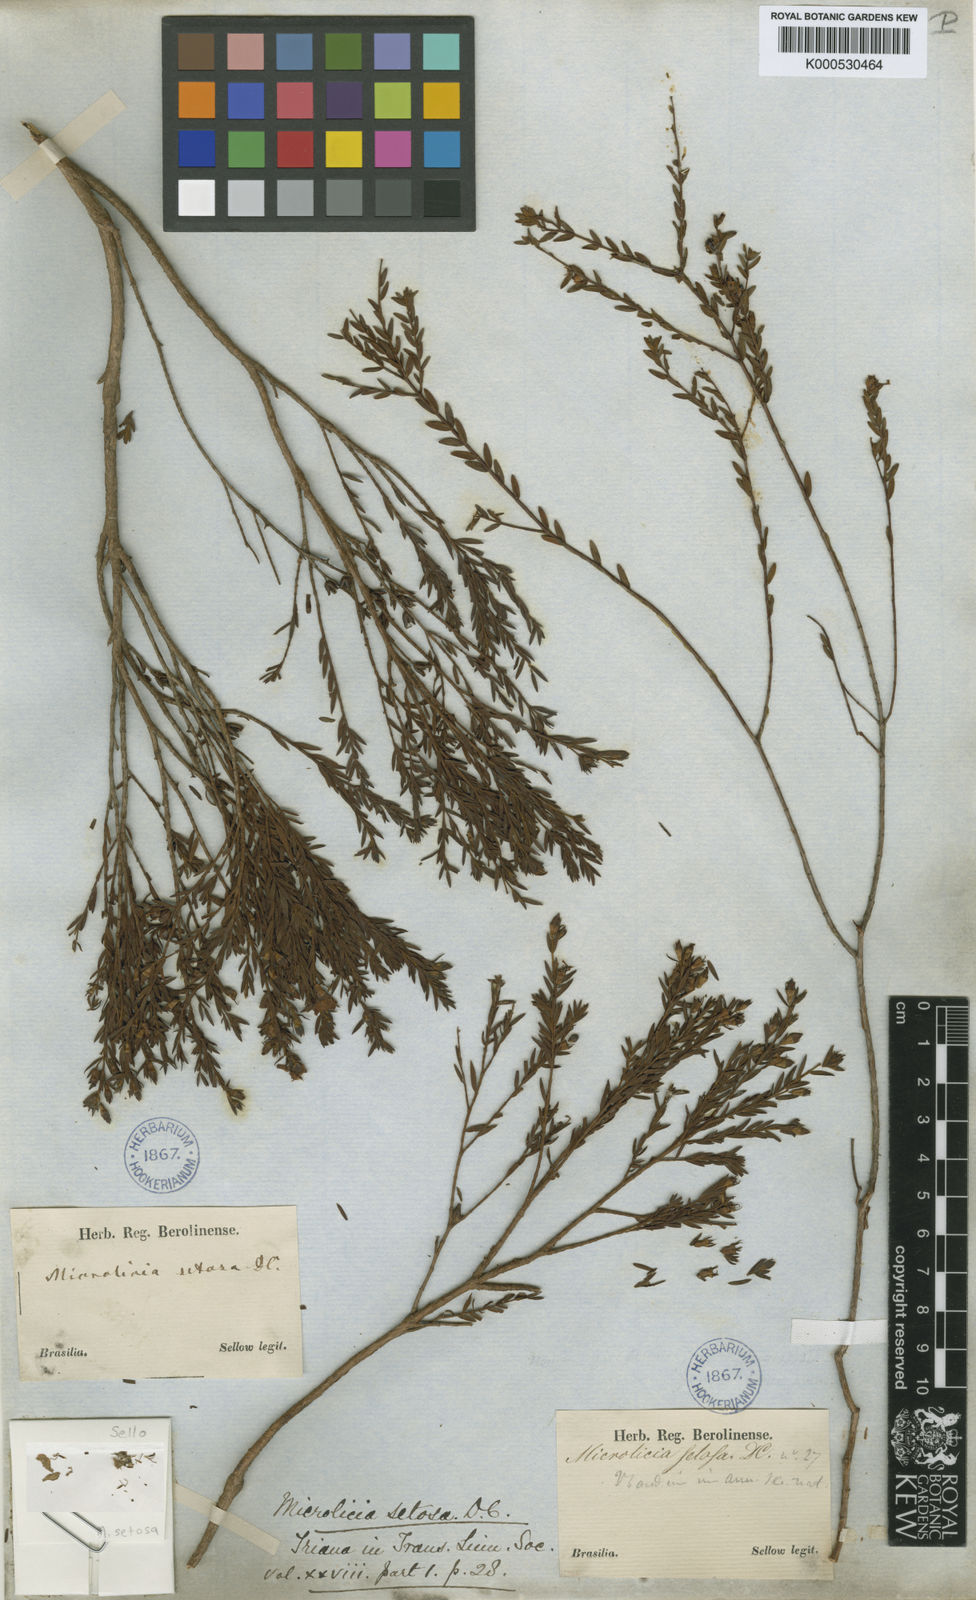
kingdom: Plantae
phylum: Tracheophyta
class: Magnoliopsida
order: Myrtales
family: Melastomataceae
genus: Microlicia
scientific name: Microlicia setosa
